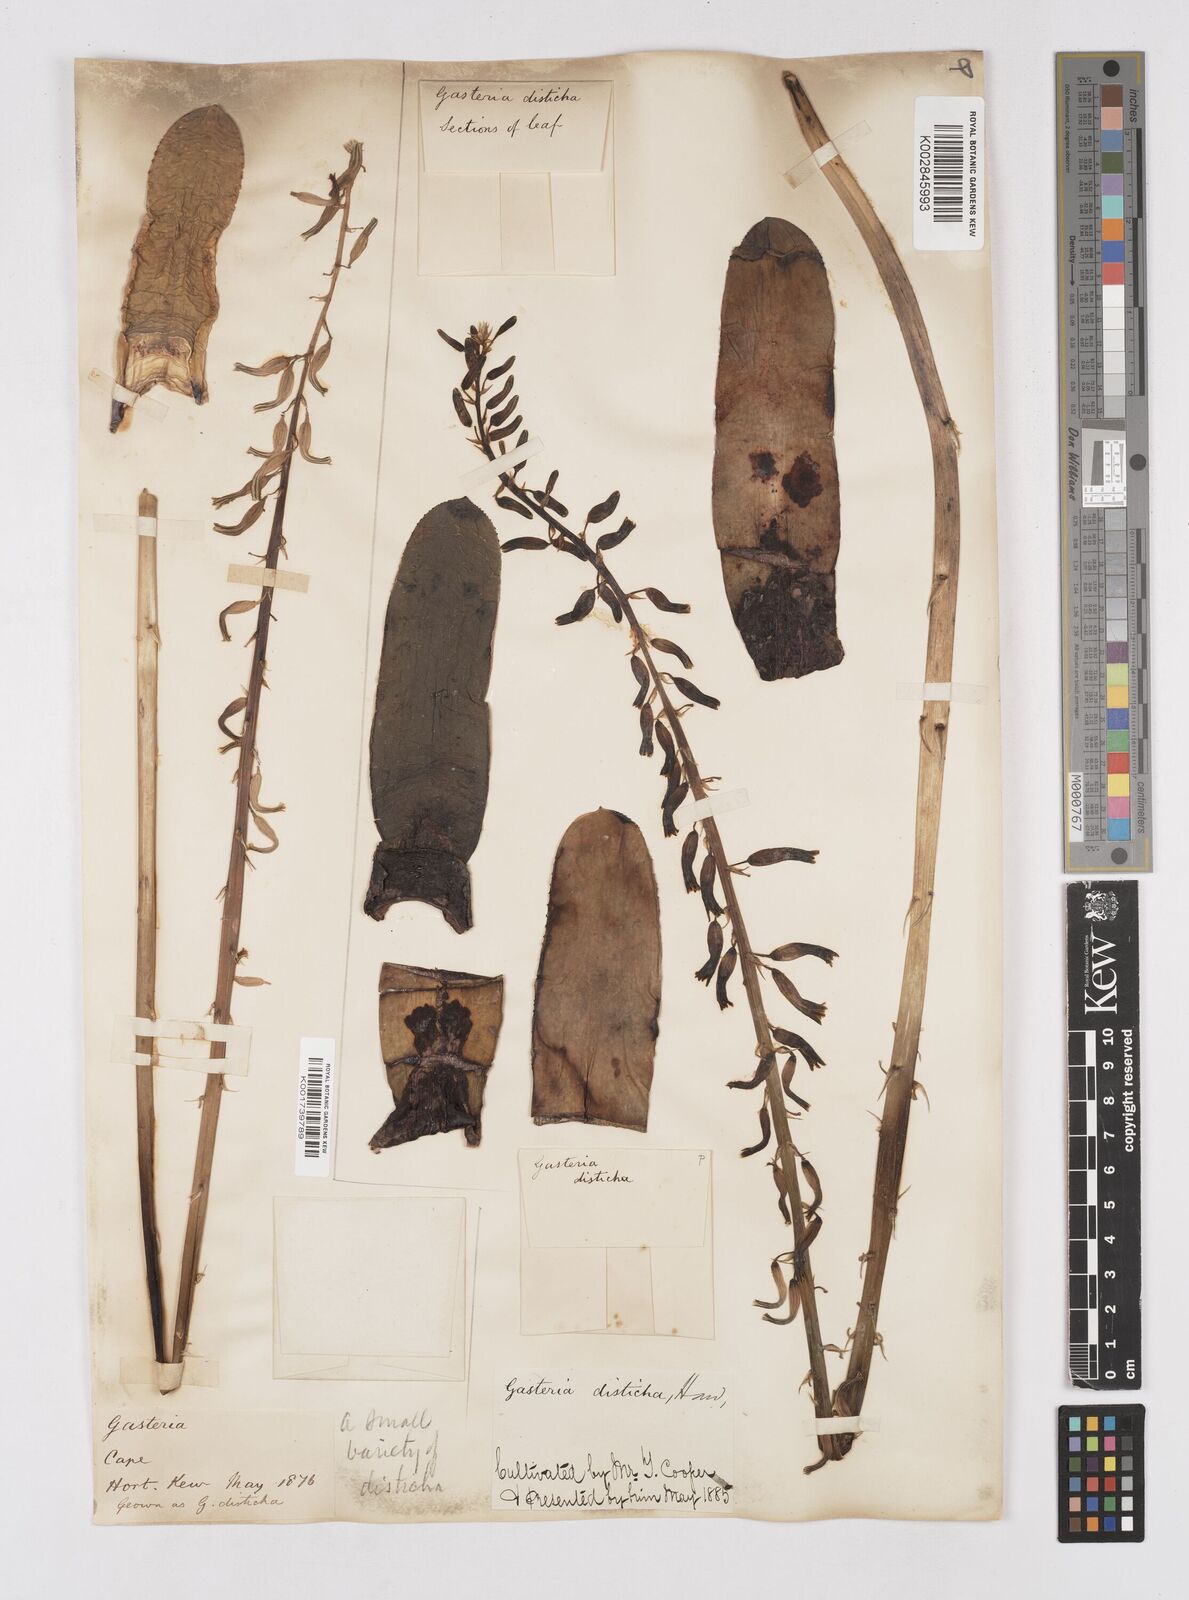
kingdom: Plantae
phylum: Tracheophyta
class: Liliopsida
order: Asparagales
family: Asphodelaceae
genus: Gasteria
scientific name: Gasteria lingua
